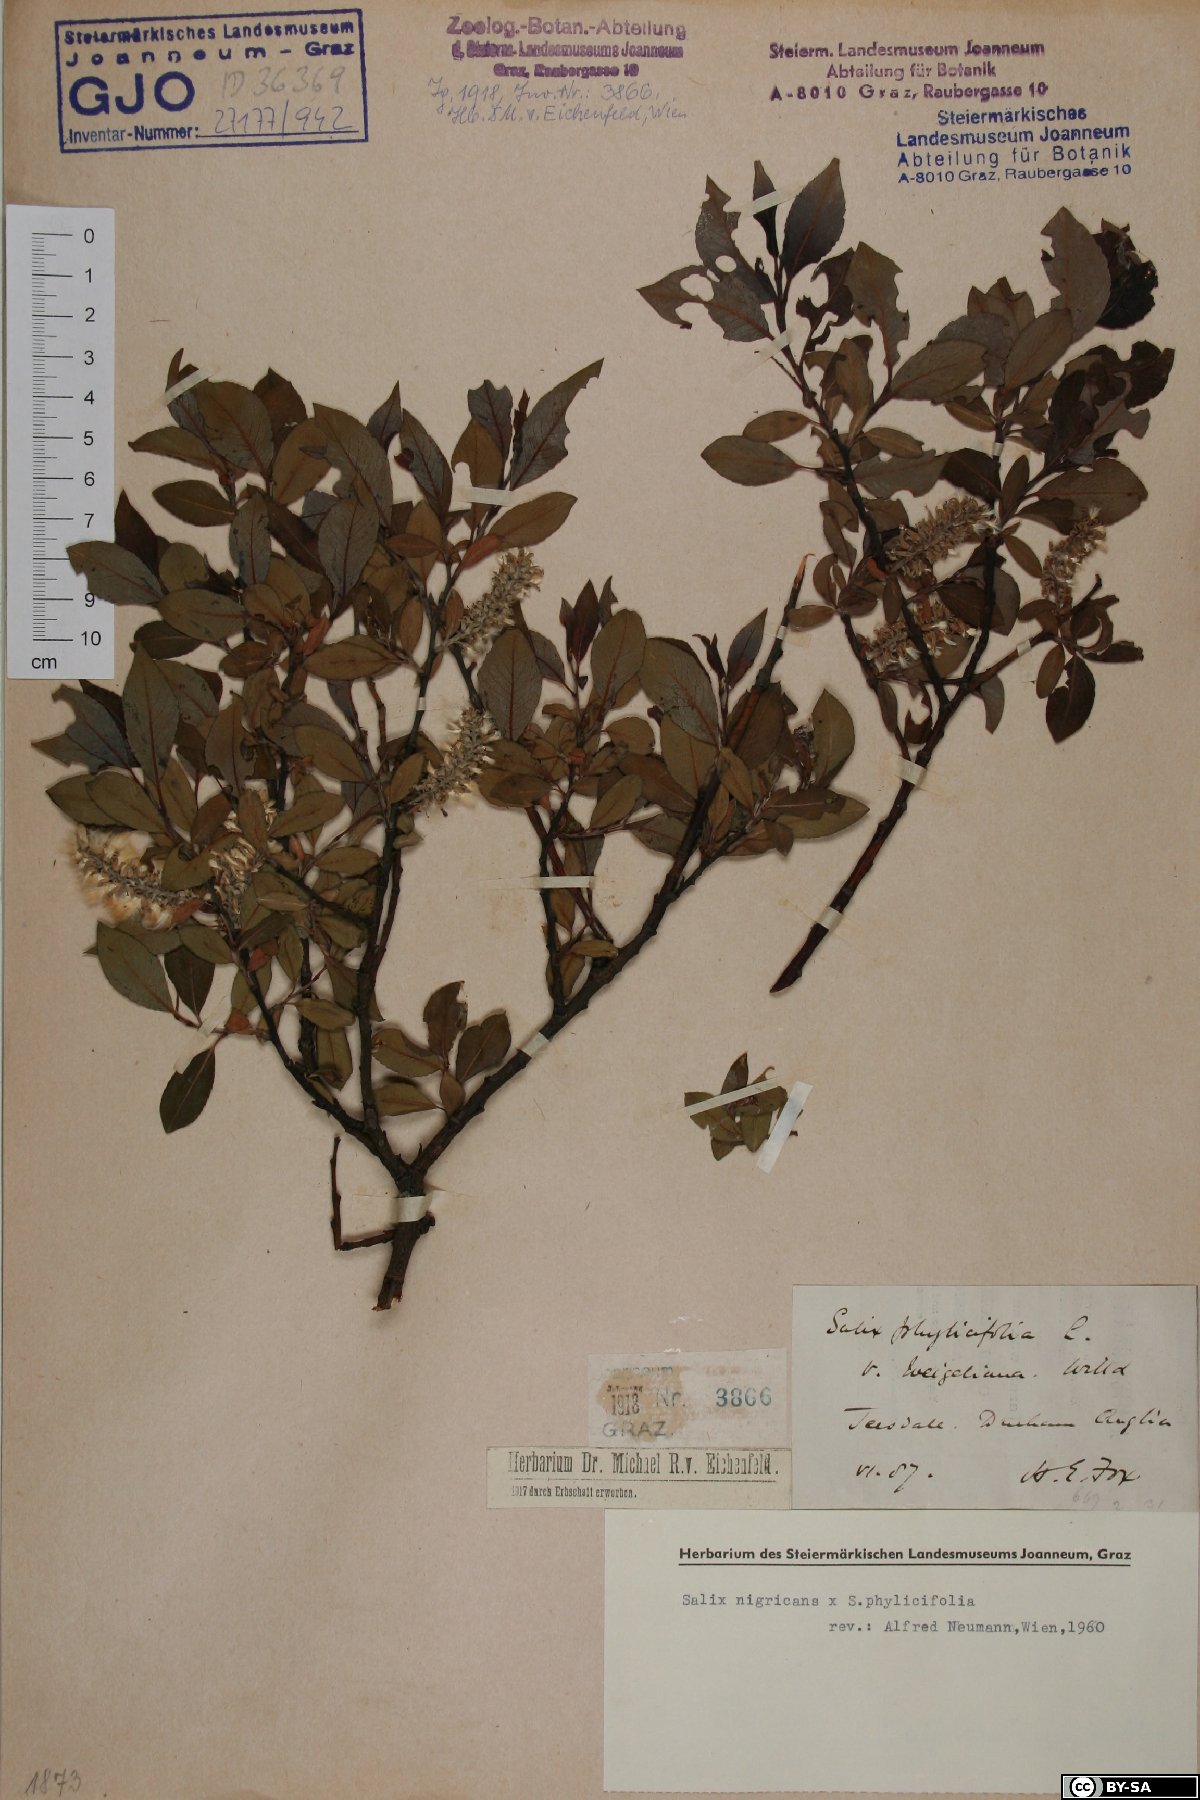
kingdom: Plantae
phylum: Tracheophyta
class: Magnoliopsida
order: Malpighiales
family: Salicaceae
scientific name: Salicaceae
